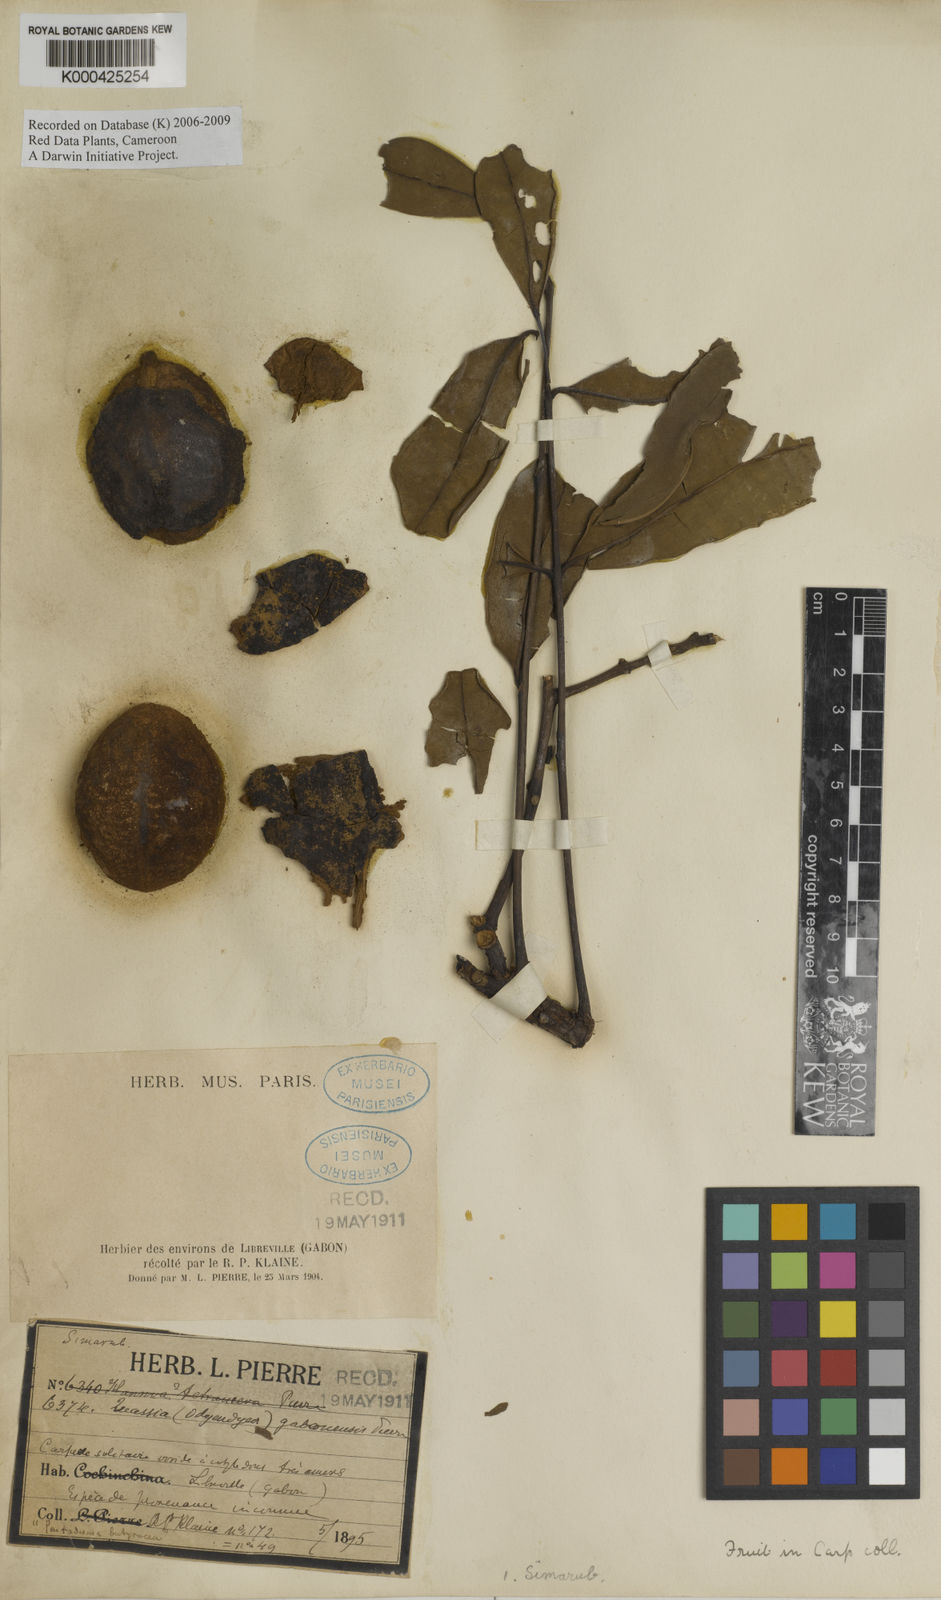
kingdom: Plantae
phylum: Tracheophyta
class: Magnoliopsida
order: Sapindales
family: Simaroubaceae
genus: Odyendyea
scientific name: Odyendyea gabonensis
